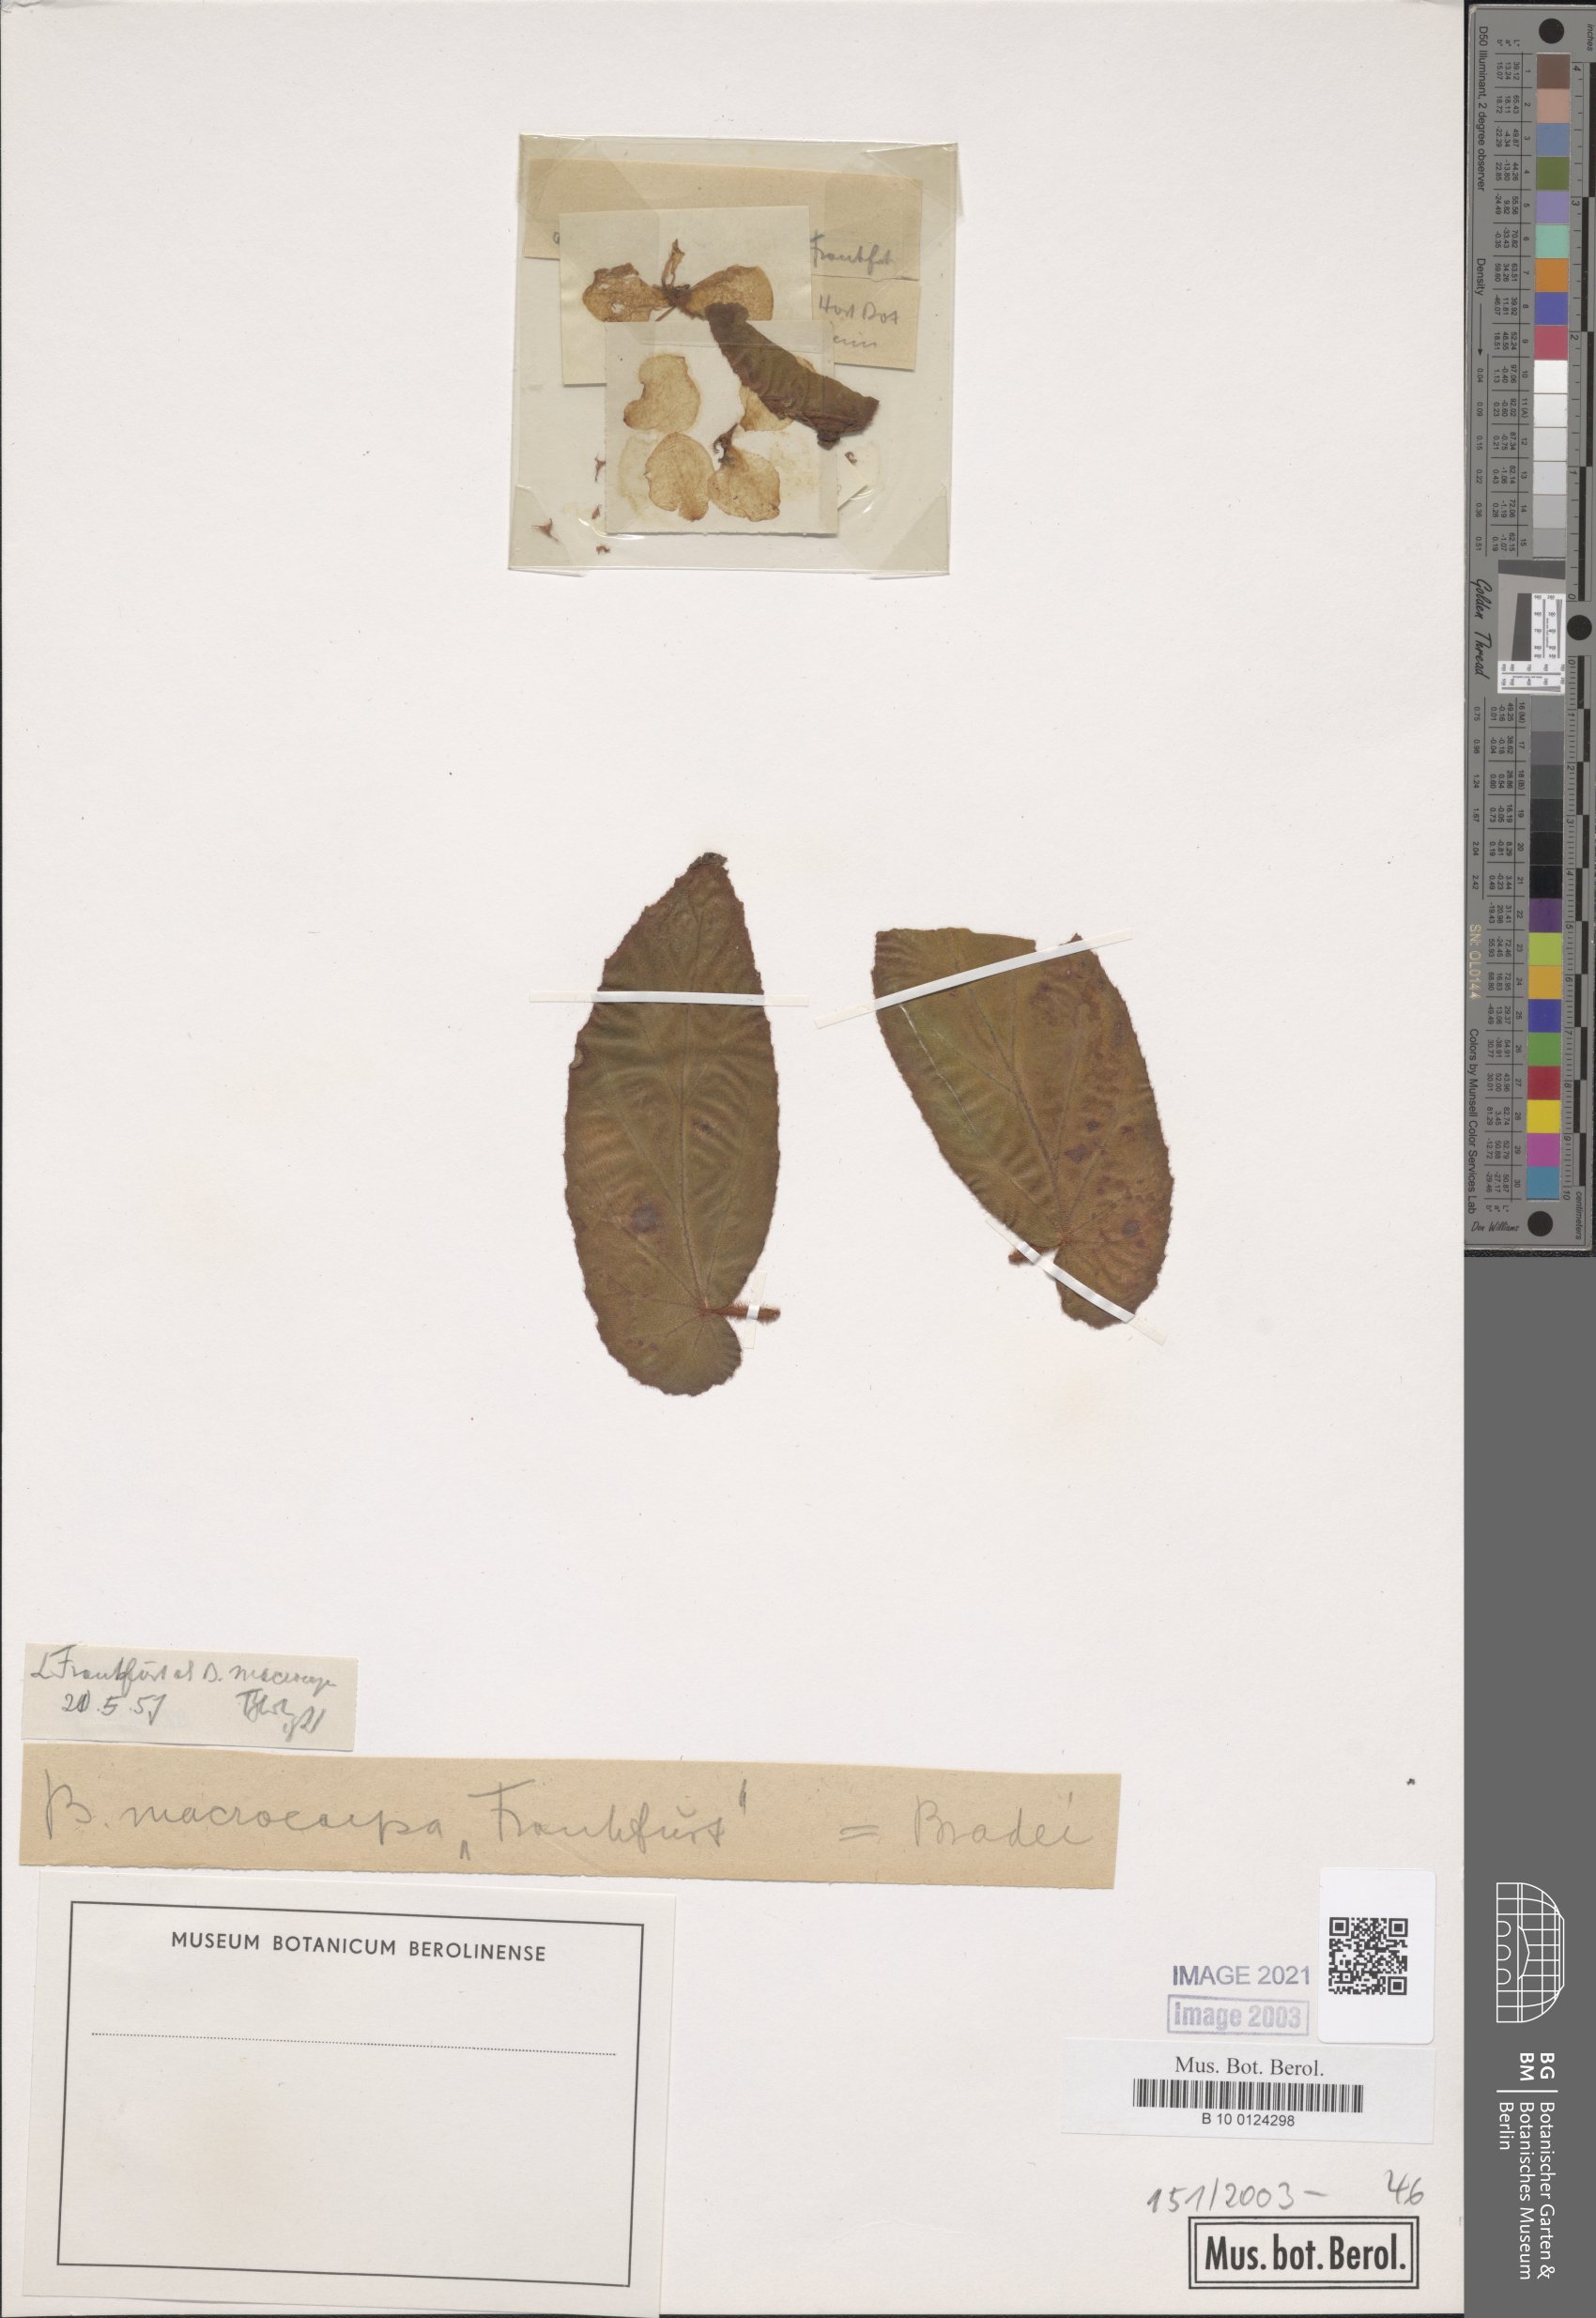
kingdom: Plantae
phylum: Tracheophyta
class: Magnoliopsida
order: Cucurbitales
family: Begoniaceae
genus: Begonia
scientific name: Begonia bradei
